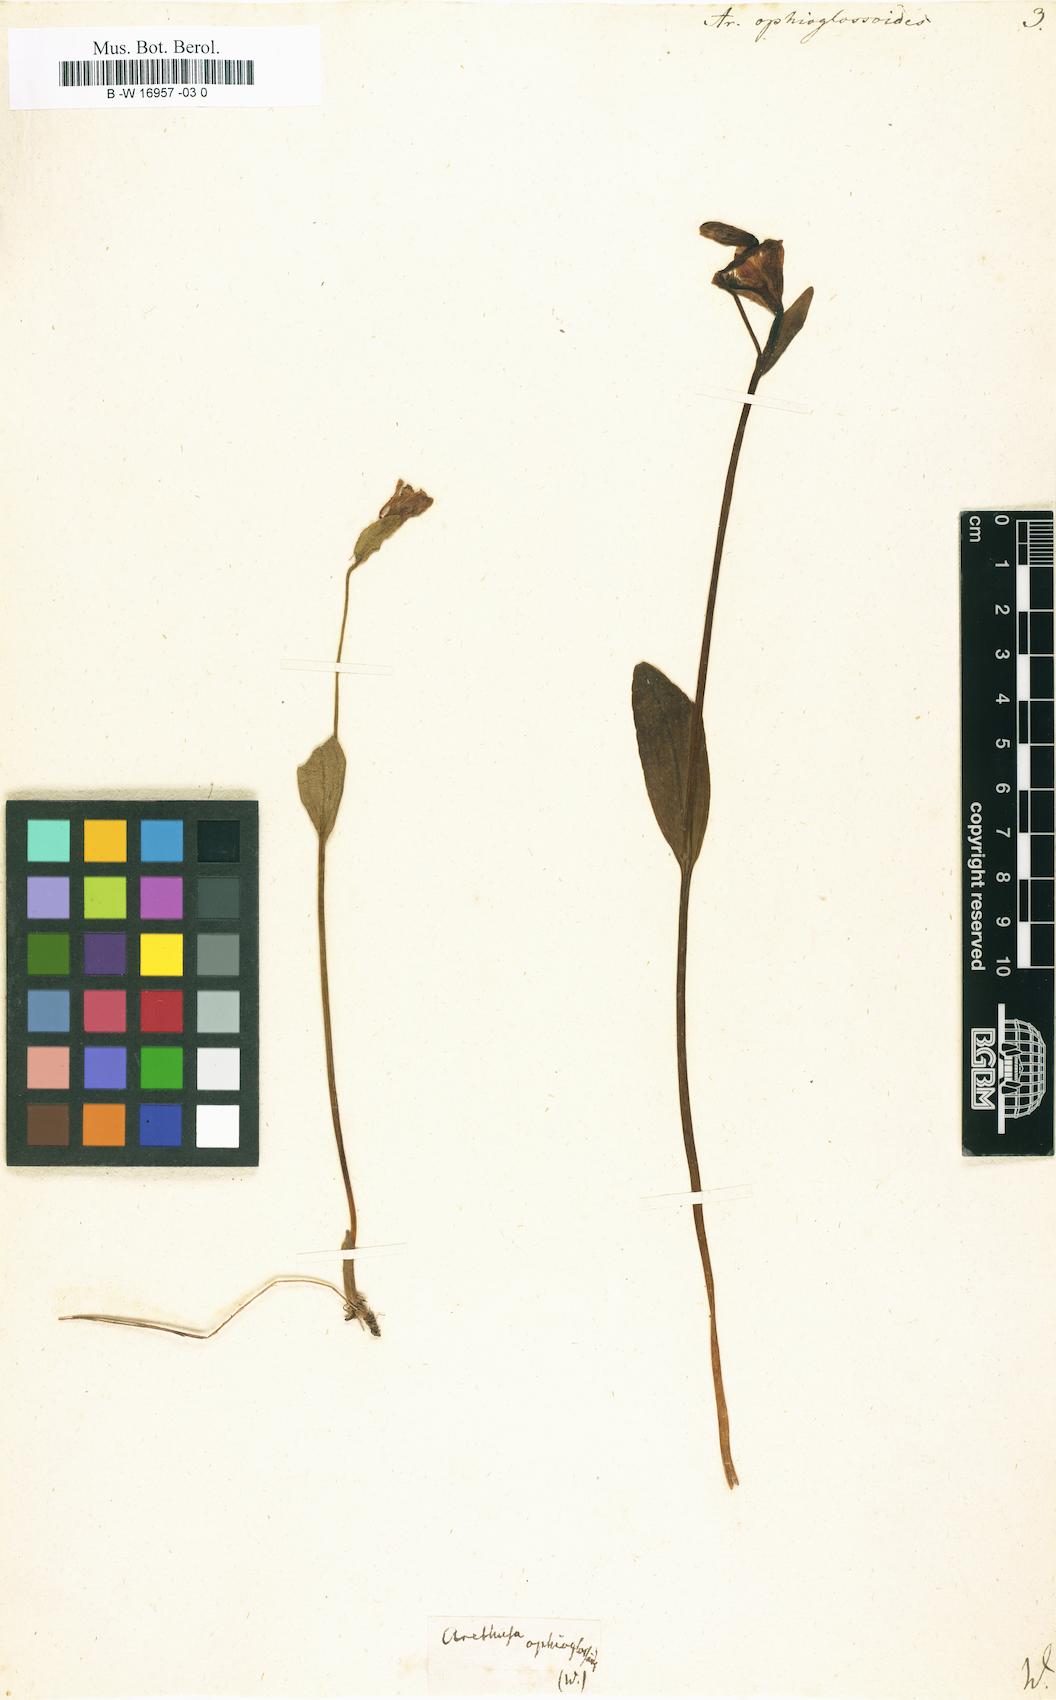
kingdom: Plantae
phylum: Tracheophyta
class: Liliopsida
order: Asparagales
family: Orchidaceae
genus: Pogonia
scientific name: Pogonia ophioglossoides
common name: Rose pogonia
